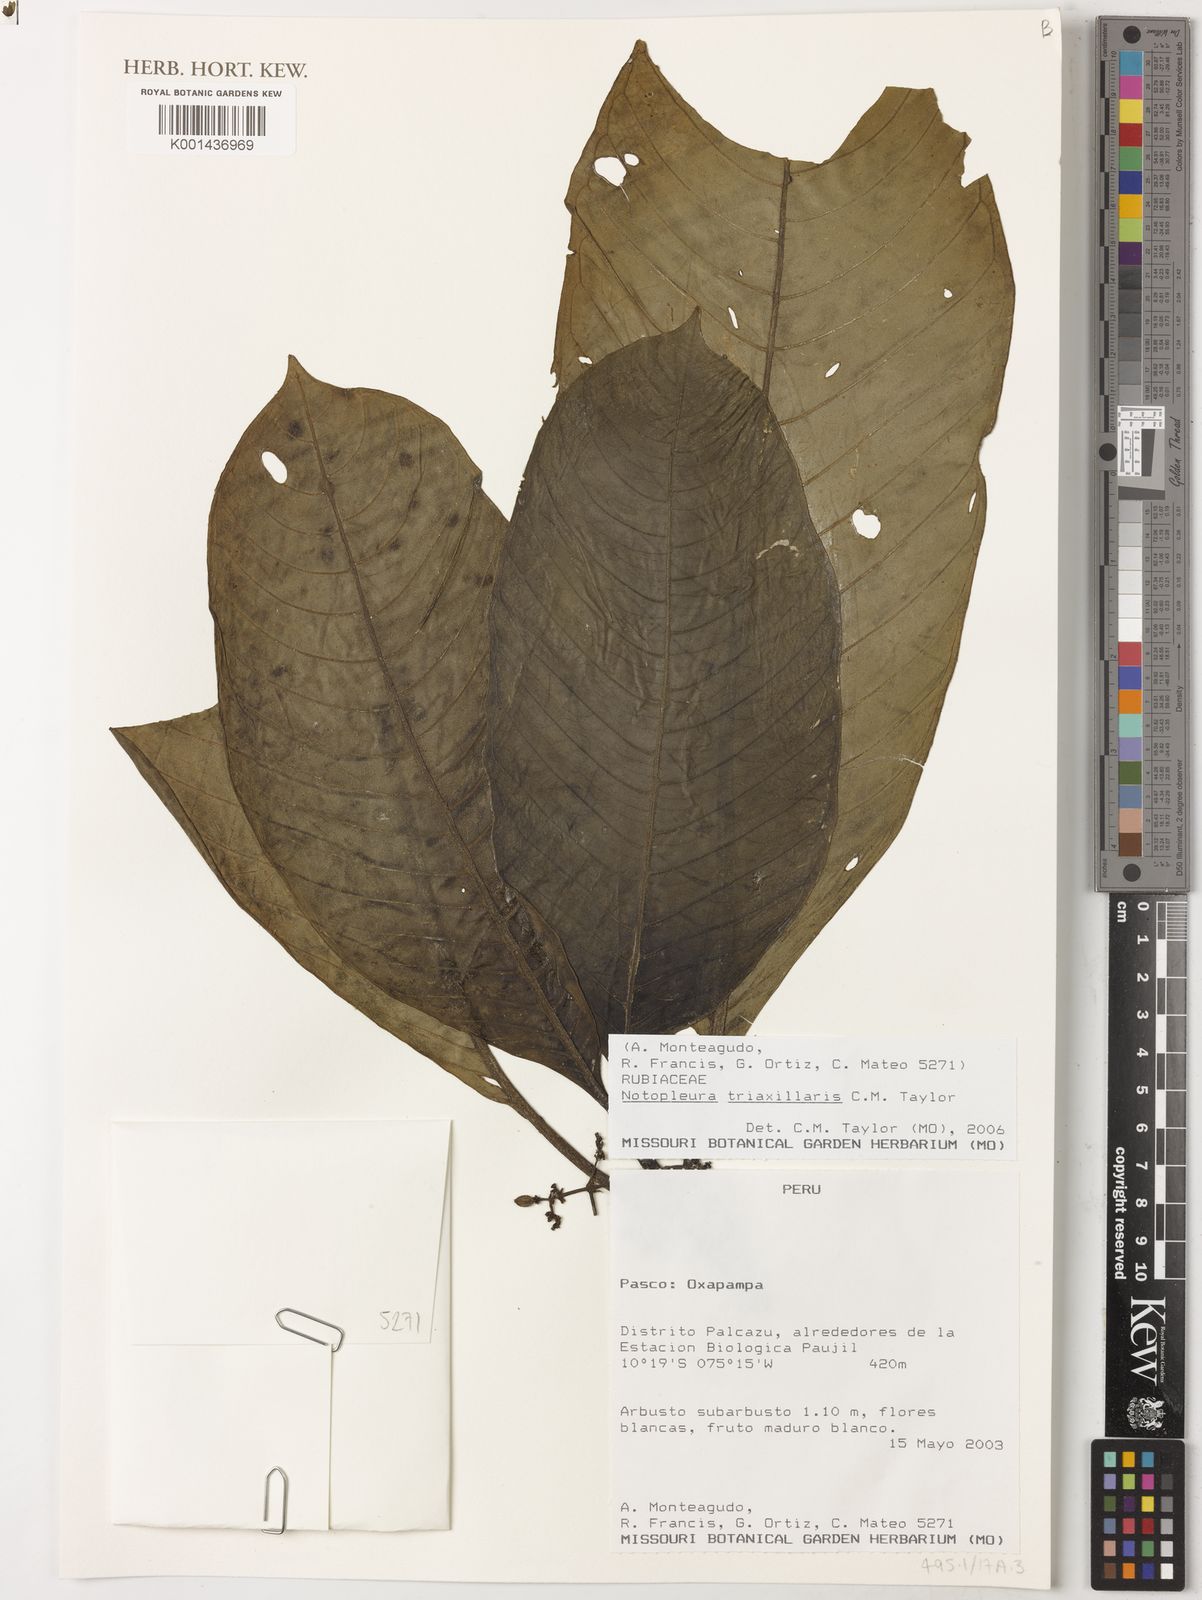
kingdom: Plantae
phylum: Tracheophyta
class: Magnoliopsida
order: Gentianales
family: Rubiaceae
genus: Notopleura
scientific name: Notopleura triaxillaris
